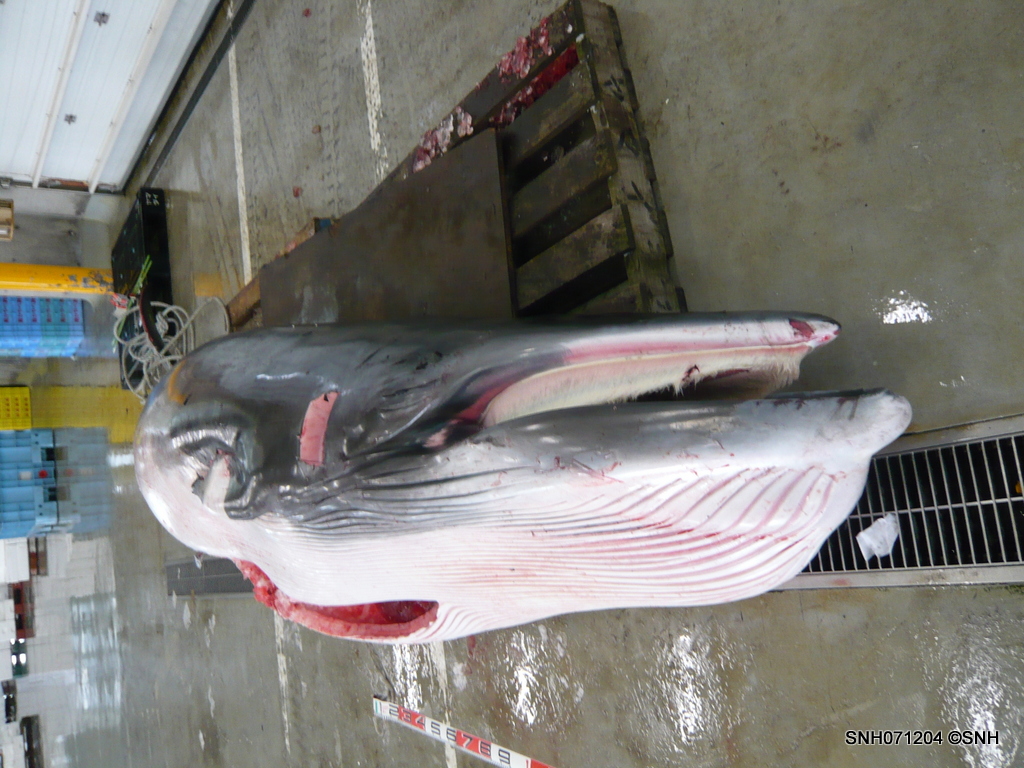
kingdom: Animalia
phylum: Chordata
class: Mammalia
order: Cetacea
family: Balaenopteridae
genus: Balaenoptera
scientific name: Balaenoptera acutorostrata
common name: Minke whale
